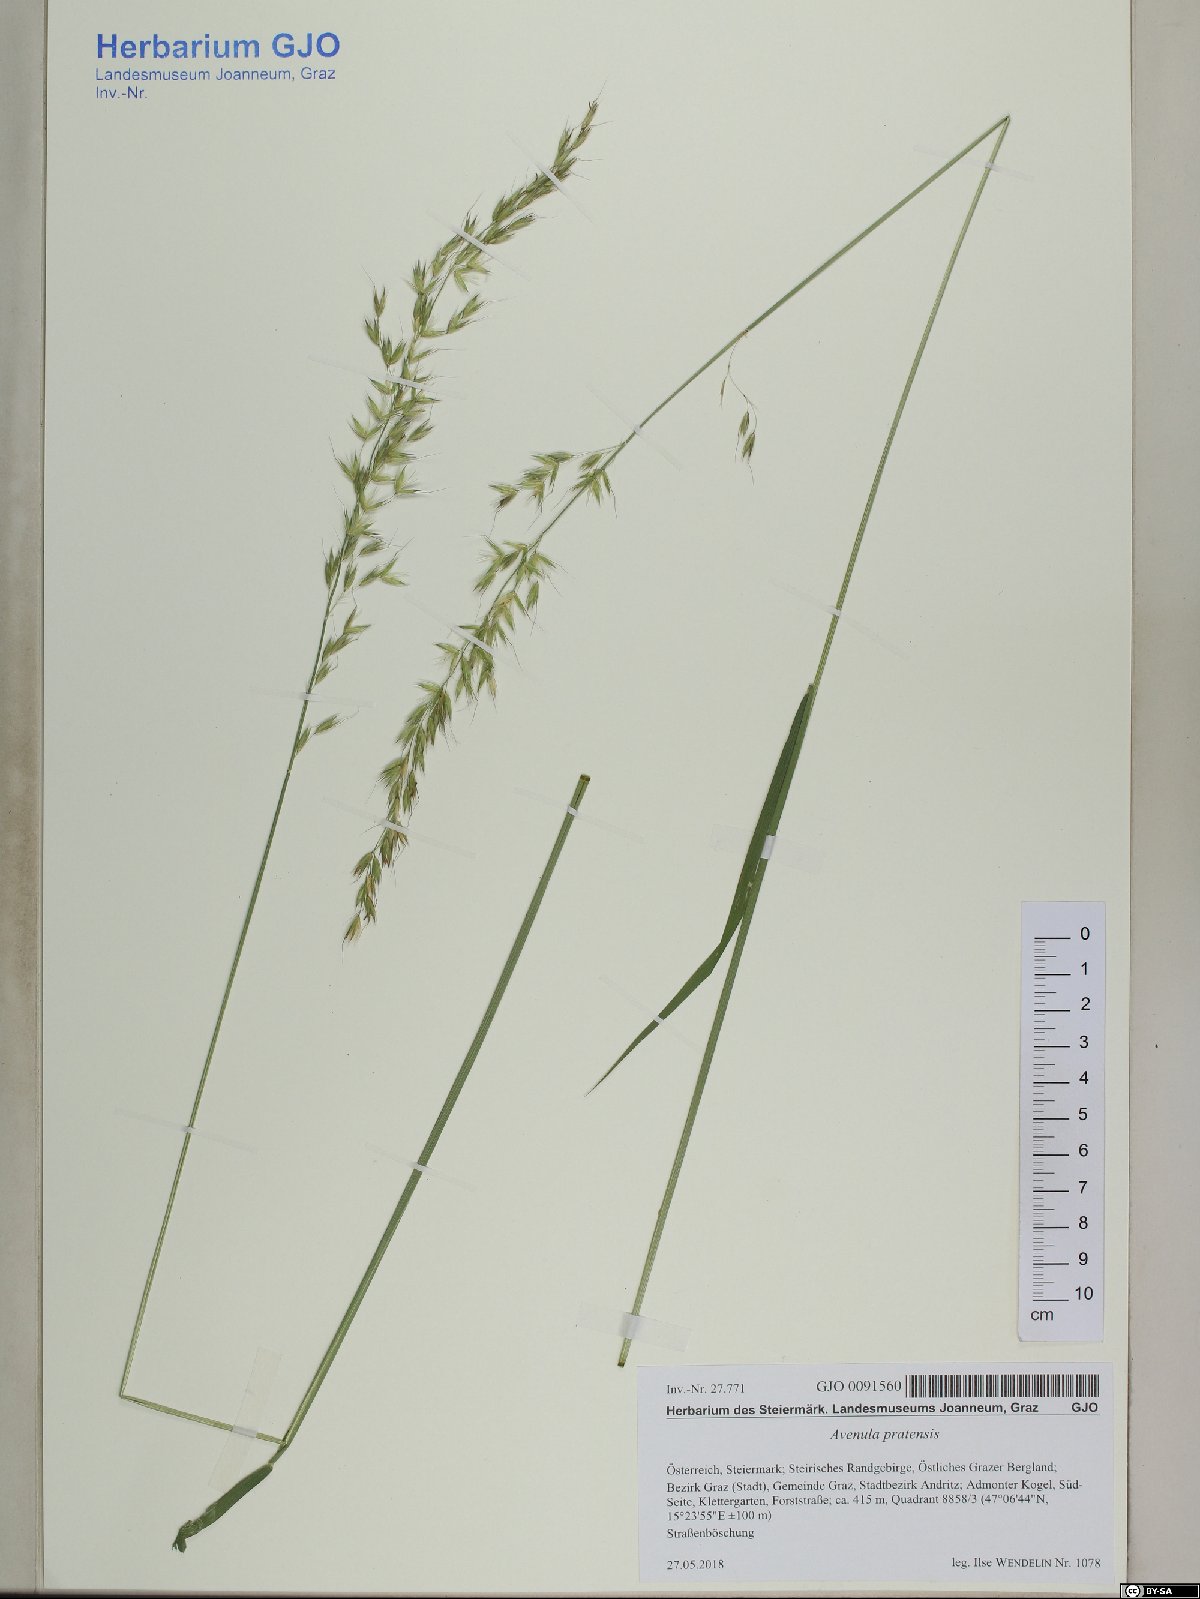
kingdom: Plantae
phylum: Tracheophyta
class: Liliopsida
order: Poales
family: Poaceae
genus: Arrhenatherum
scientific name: Arrhenatherum elatius
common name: Tall oatgrass
